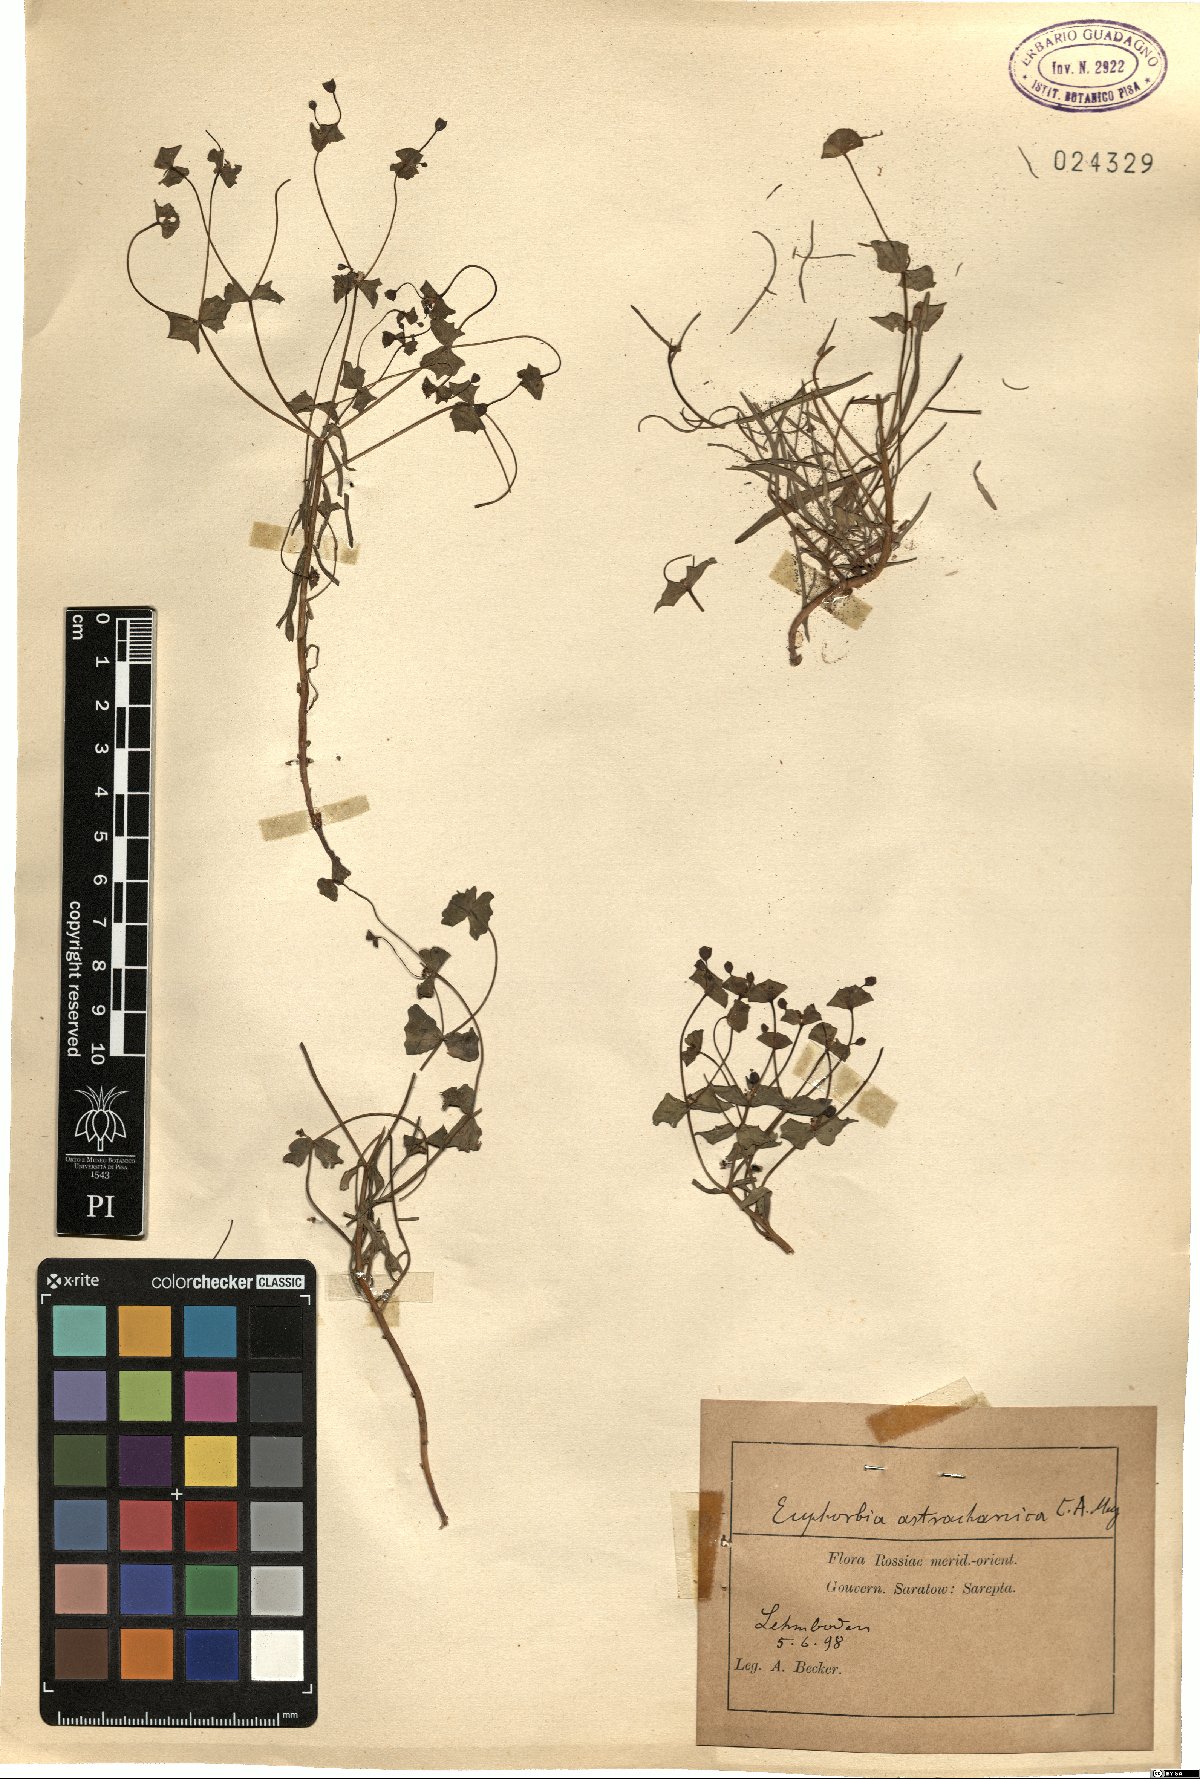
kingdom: Plantae
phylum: Tracheophyta
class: Magnoliopsida
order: Malpighiales
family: Euphorbiaceae
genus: Euphorbia
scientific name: Euphorbia astrachanica
